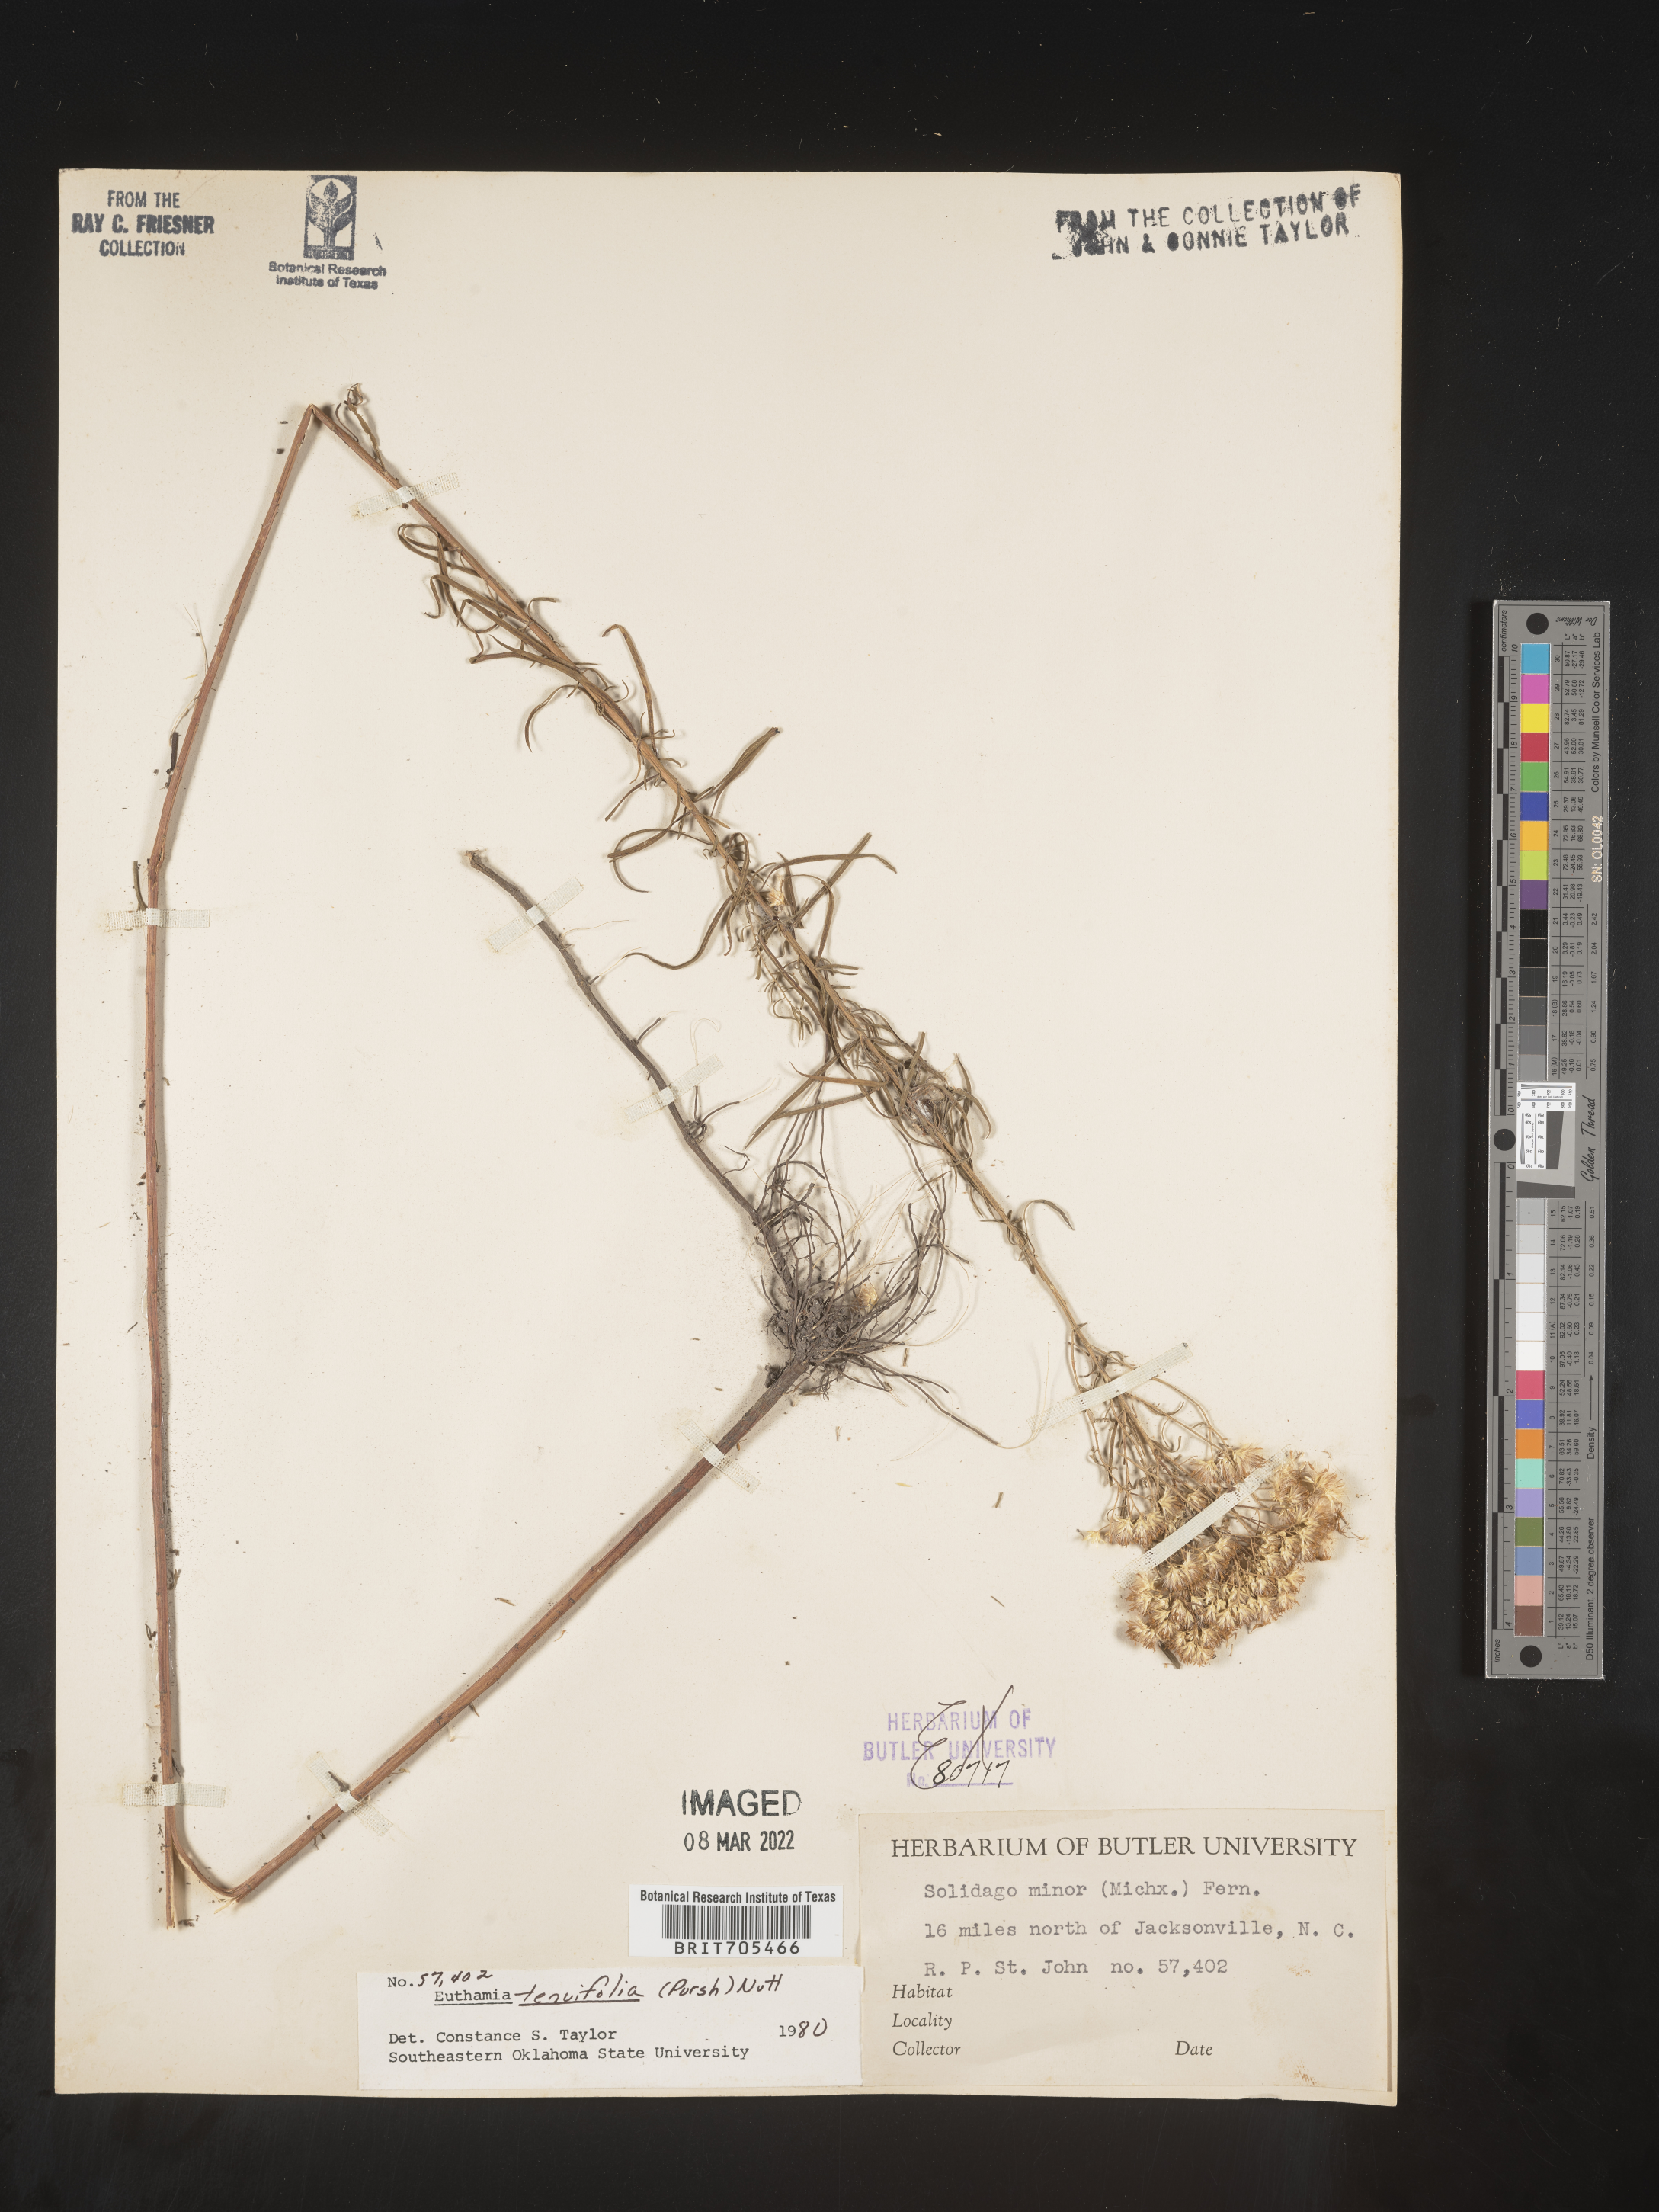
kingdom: Plantae
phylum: Tracheophyta
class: Magnoliopsida
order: Asterales
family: Asteraceae
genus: Euthamia
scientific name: Euthamia caroliniana
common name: Coastal plain goldentop
